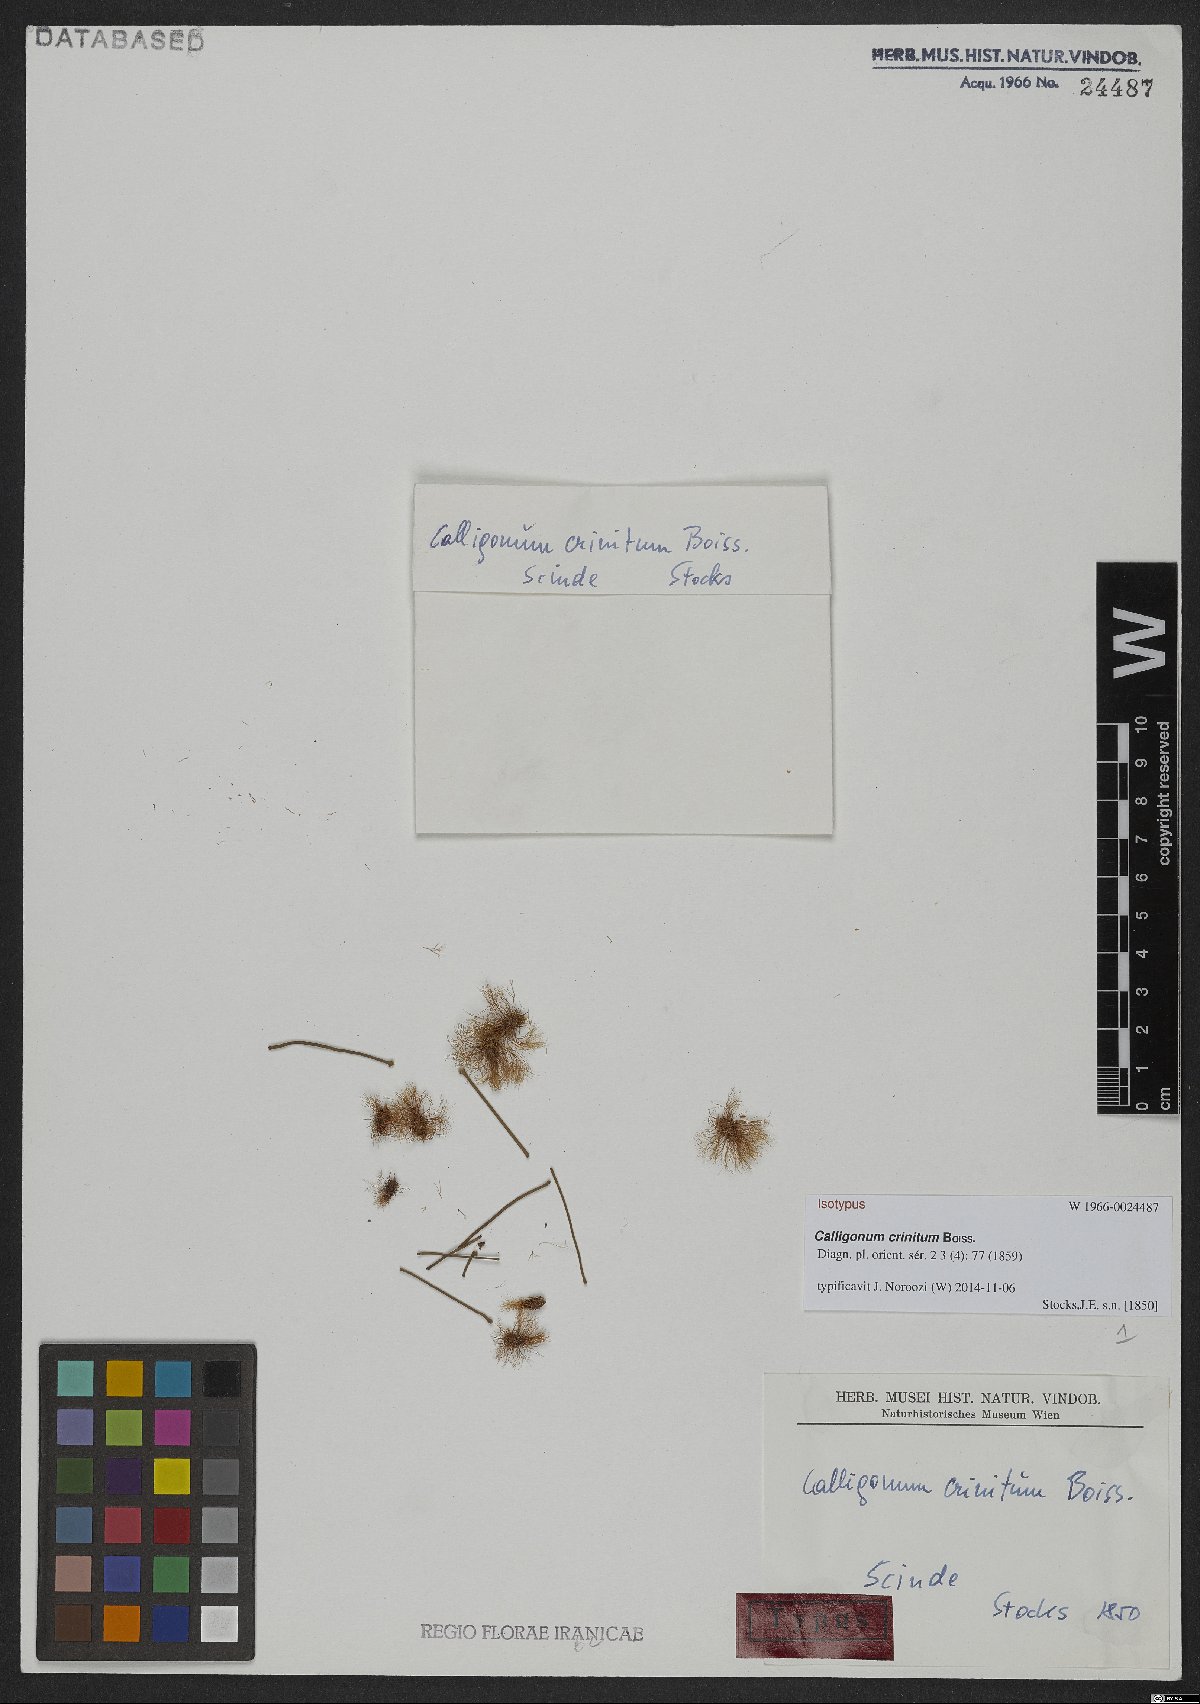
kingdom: Plantae
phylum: Tracheophyta
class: Magnoliopsida
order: Caryophyllales
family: Polygonaceae
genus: Calligonum
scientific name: Calligonum crinitum
